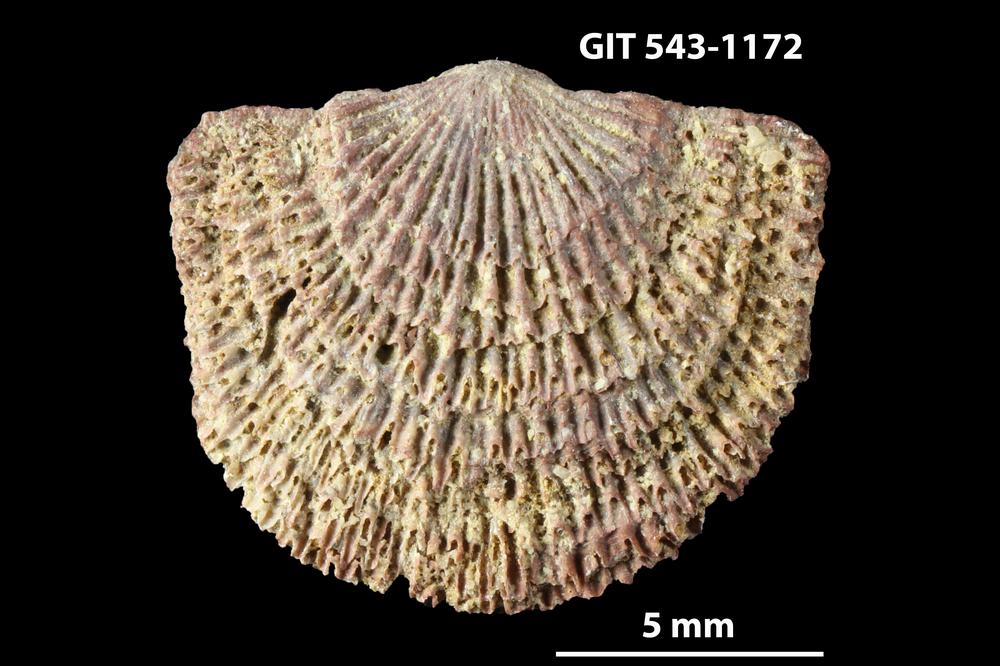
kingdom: Animalia
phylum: Brachiopoda
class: Rhynchonellata
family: Clitambonitidae
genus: Clitambonites
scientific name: Clitambonites Orthisina schmidti
